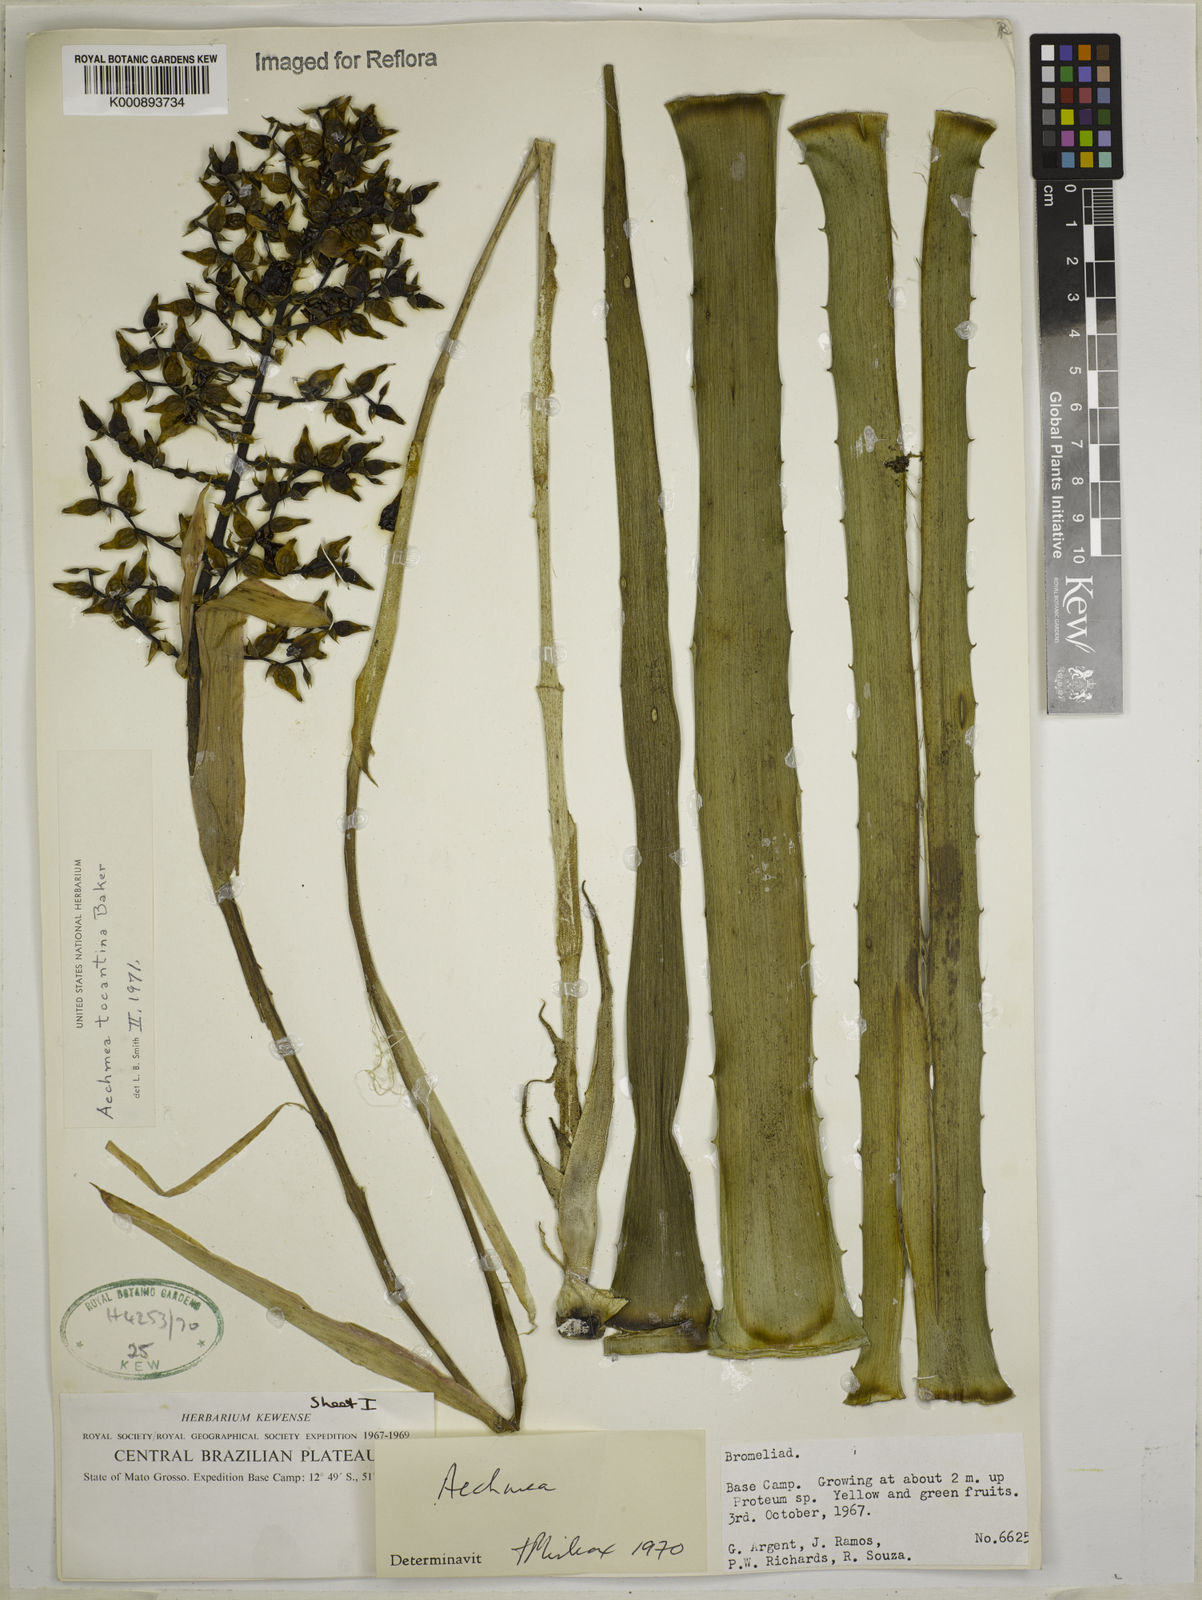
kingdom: Plantae
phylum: Tracheophyta
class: Liliopsida
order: Poales
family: Bromeliaceae
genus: Aechmea
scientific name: Aechmea tocantina
